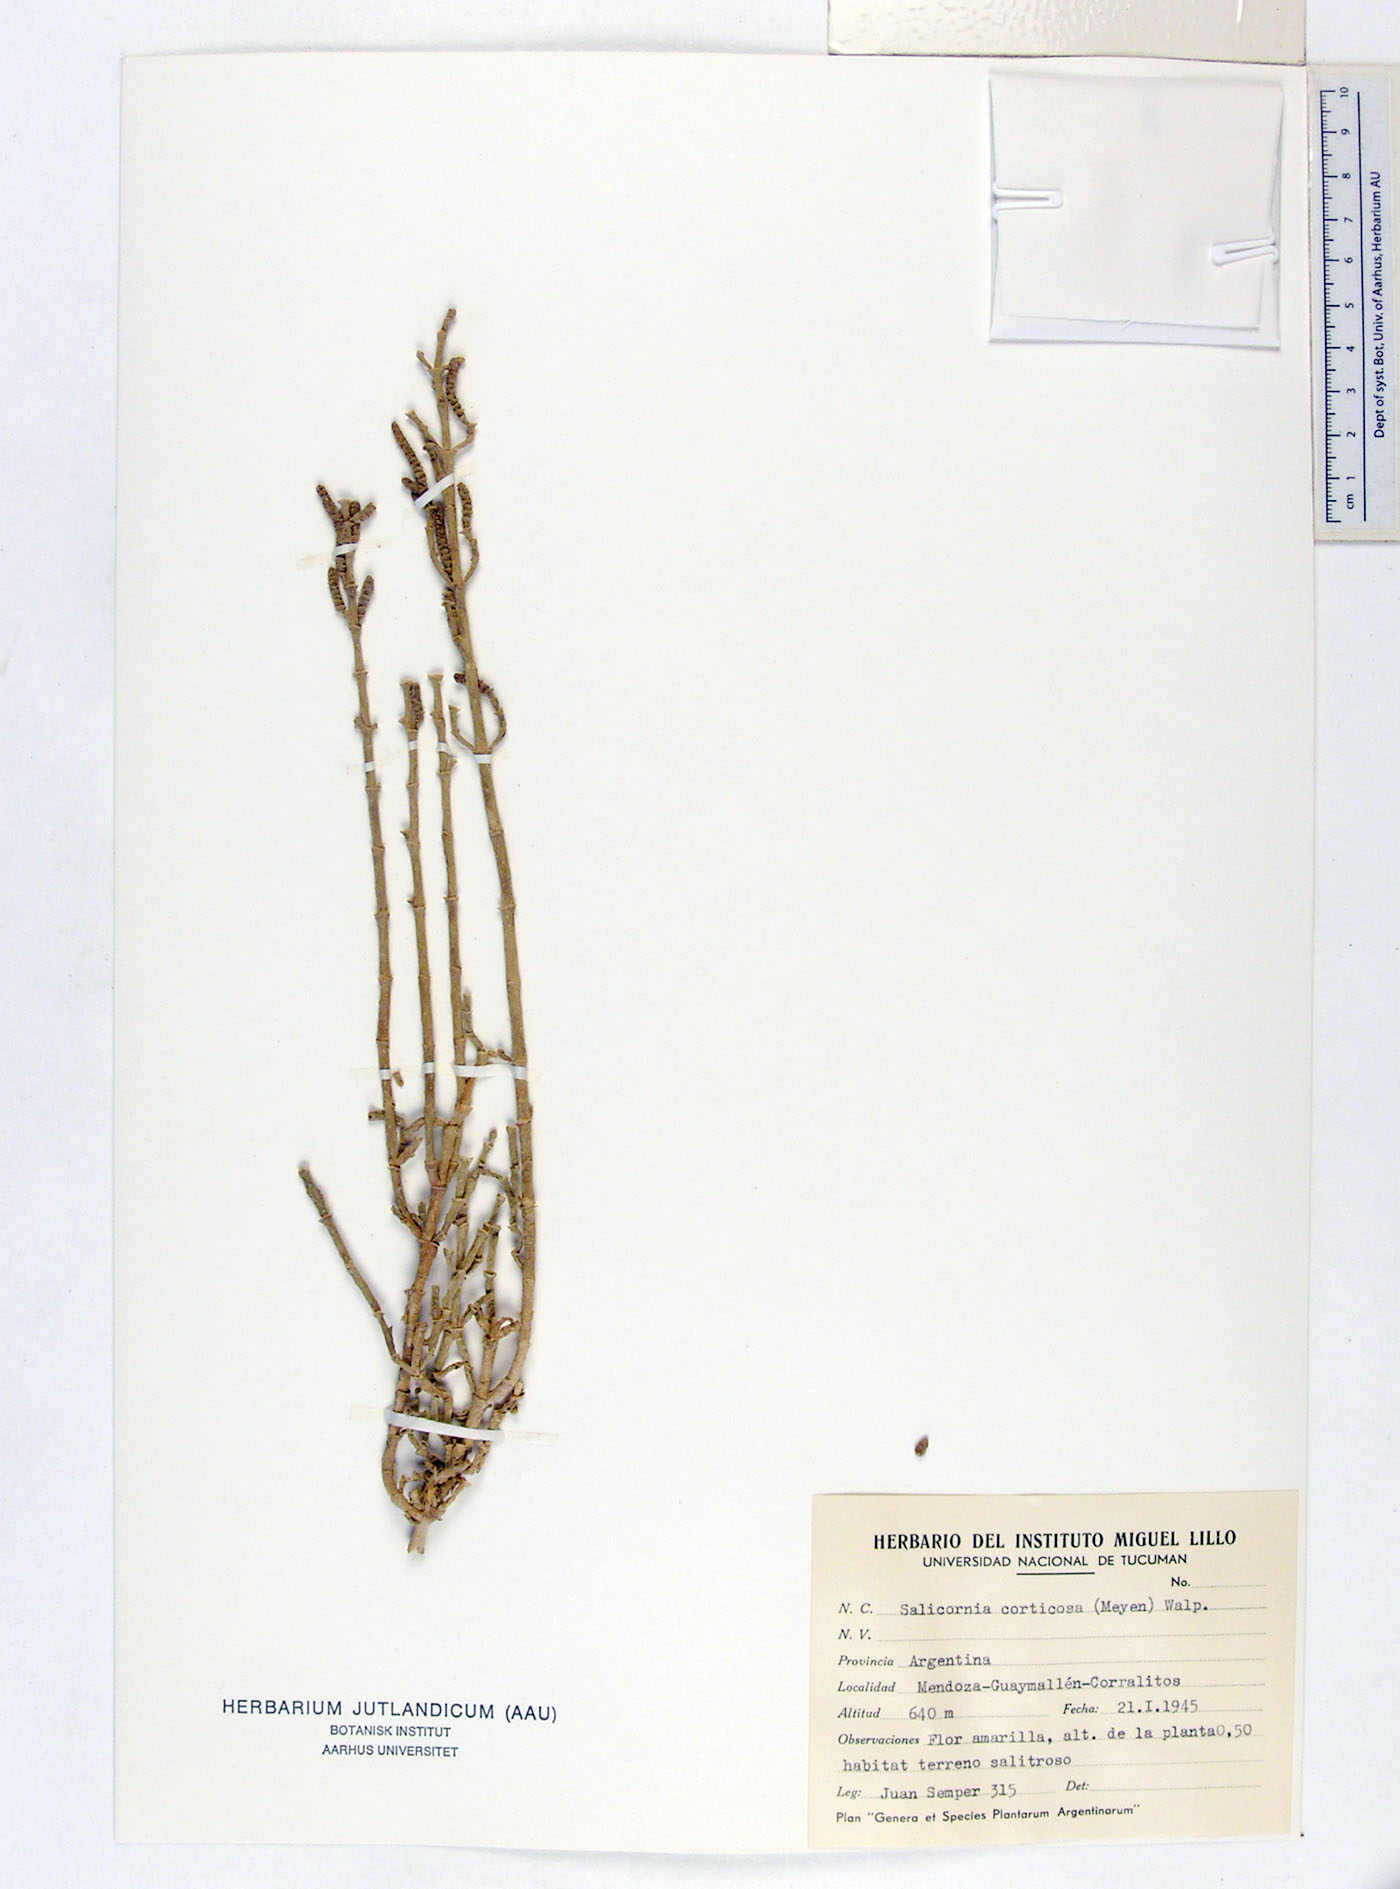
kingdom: Plantae
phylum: Tracheophyta
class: Magnoliopsida
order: Caryophyllales
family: Amaranthaceae
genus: Salicornia
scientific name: Salicornia neei
